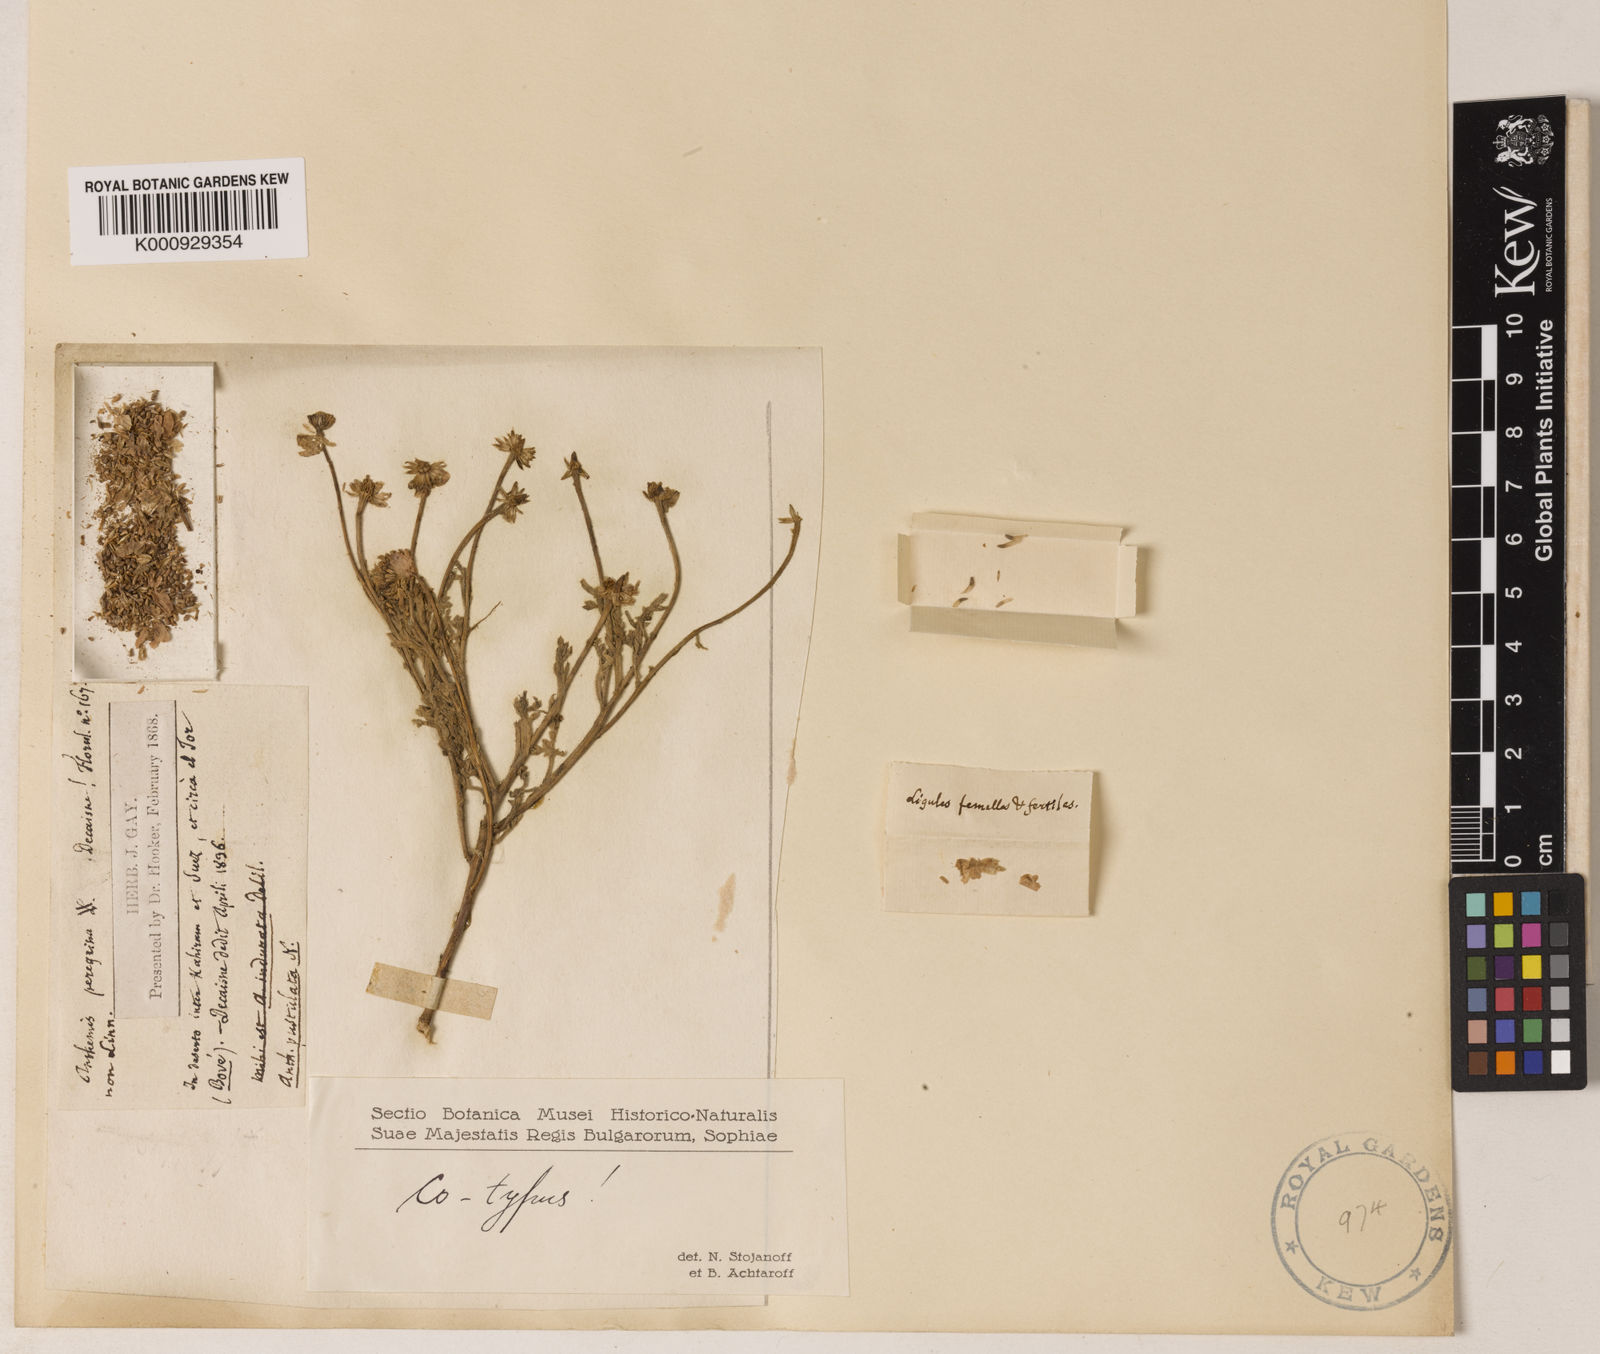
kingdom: Plantae
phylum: Tracheophyta
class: Magnoliopsida
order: Asterales
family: Asteraceae
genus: Anthemis
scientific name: Anthemis melampodina
